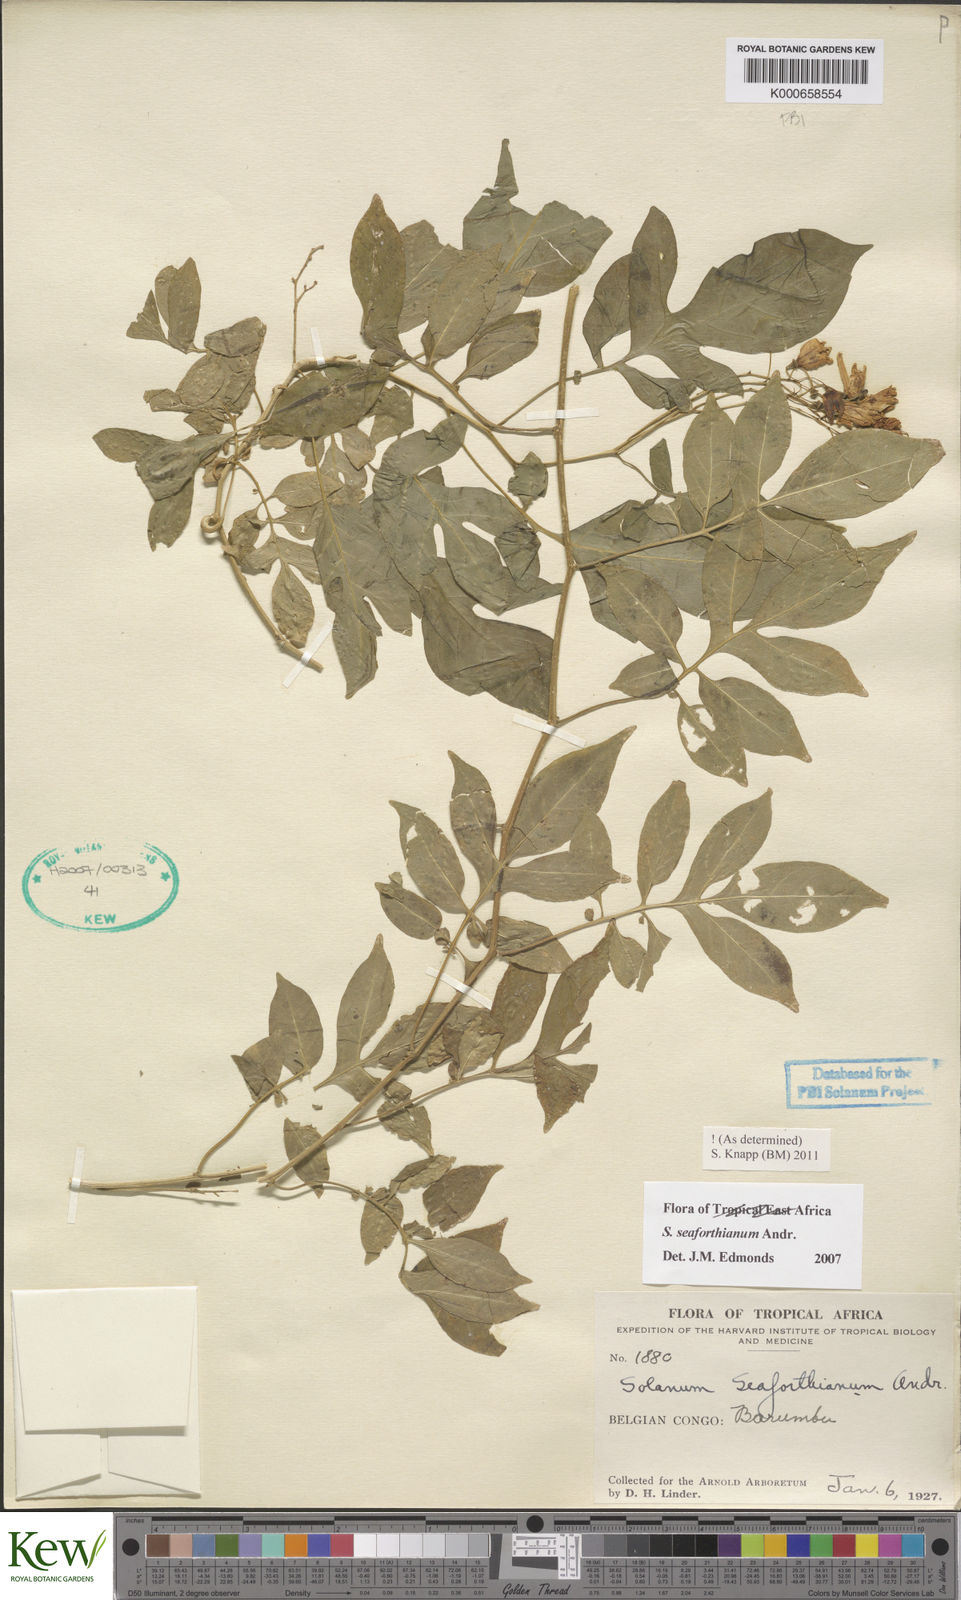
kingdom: Plantae
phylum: Tracheophyta
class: Magnoliopsida
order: Solanales
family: Solanaceae
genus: Solanum
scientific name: Solanum seaforthianum
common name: Brazilian nightshade
